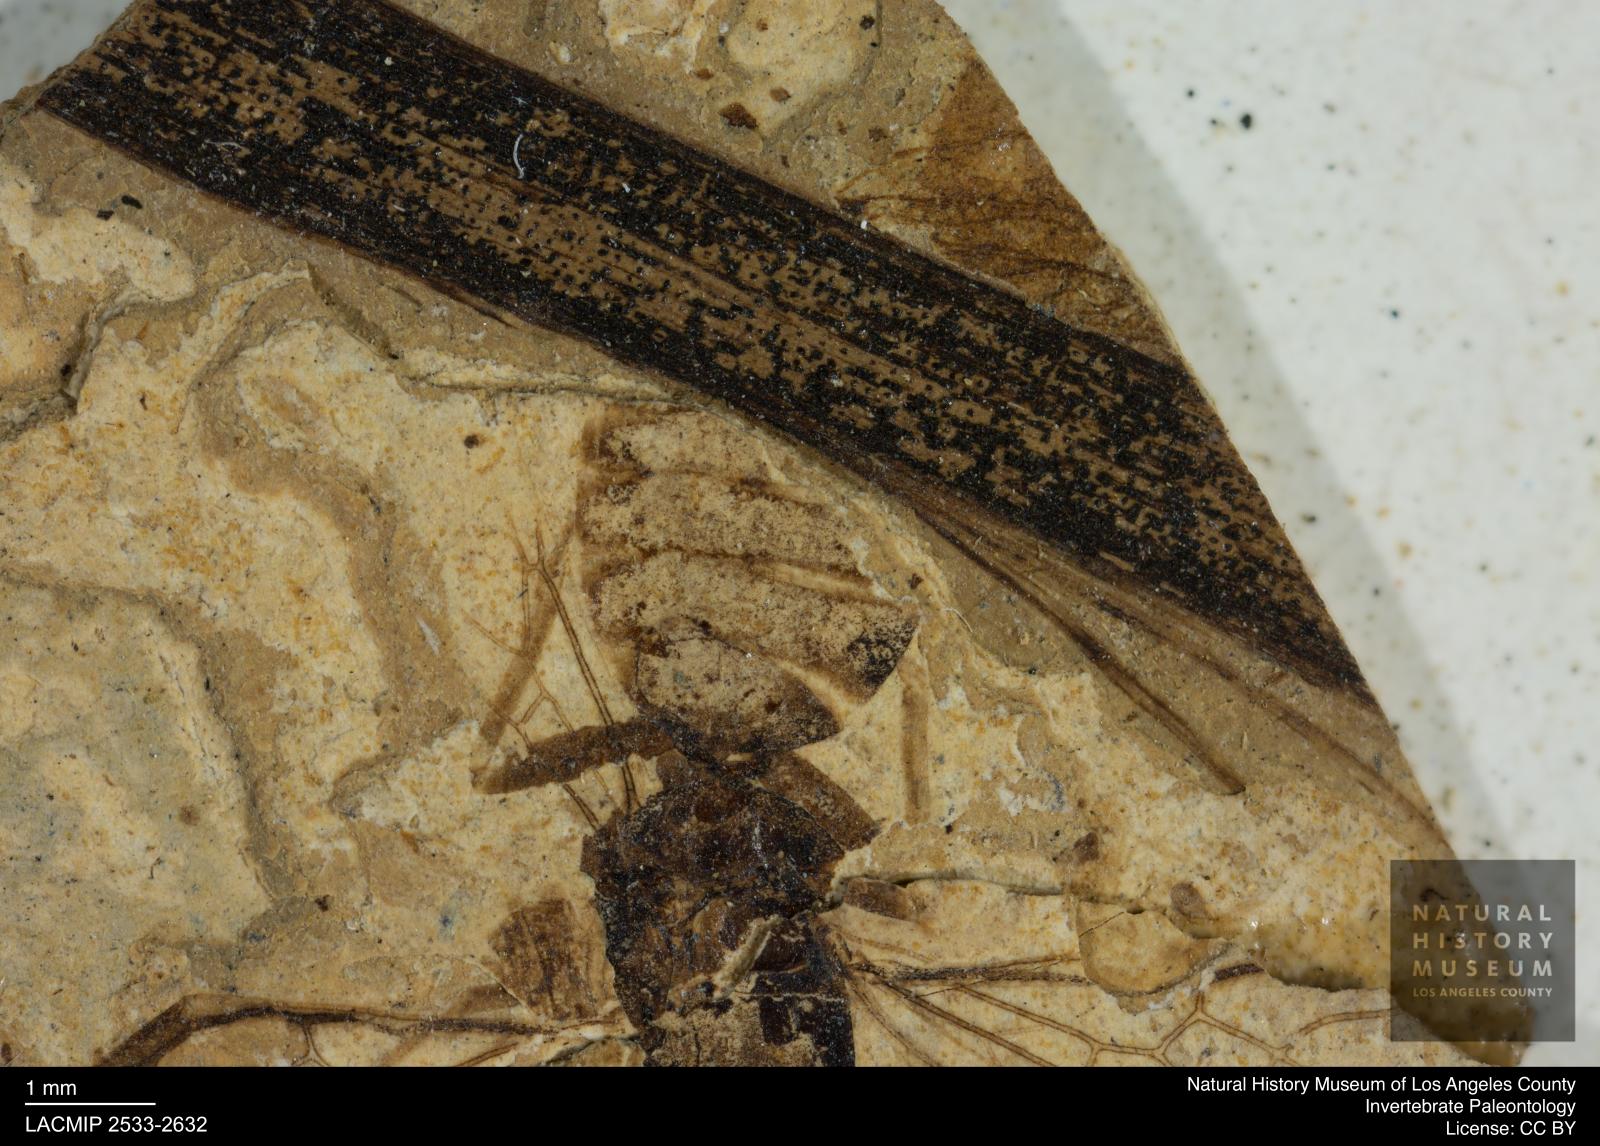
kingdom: Animalia
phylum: Arthropoda
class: Insecta
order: Hymenoptera
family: Formicidae
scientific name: Formicidae
